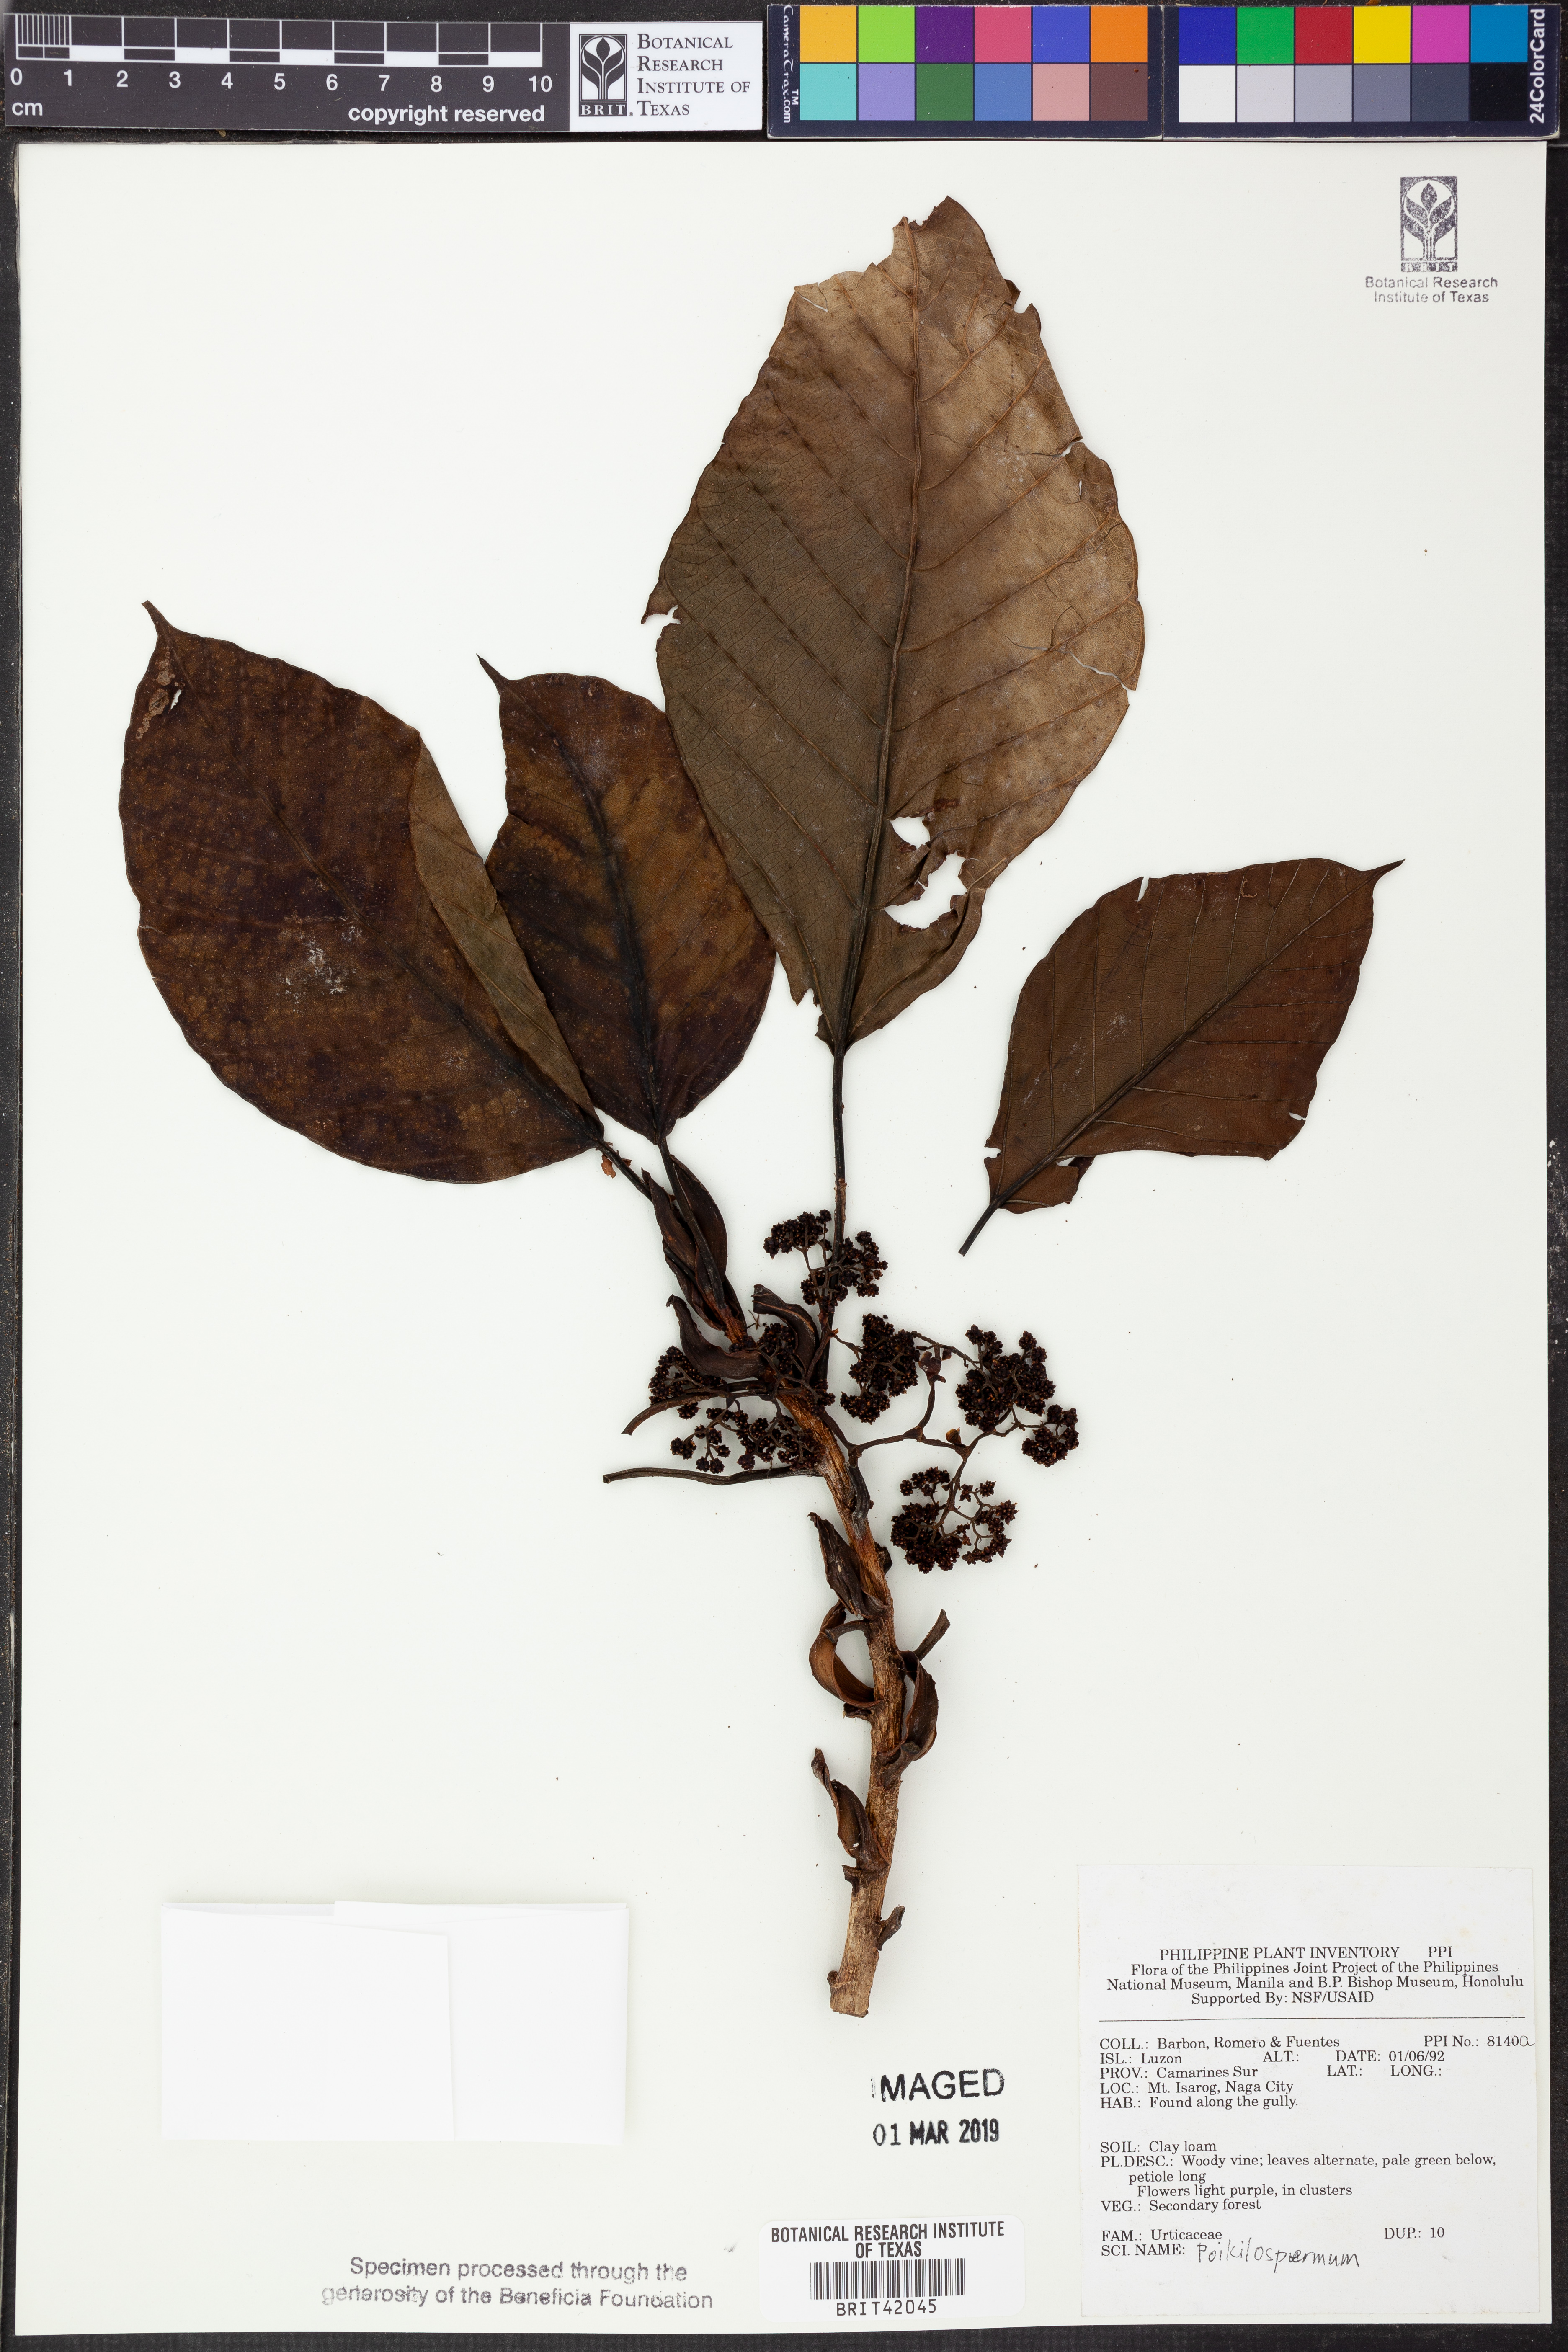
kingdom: Plantae
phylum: Tracheophyta
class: Magnoliopsida
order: Rosales
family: Urticaceae
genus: Poikilospermum
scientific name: Poikilospermum
